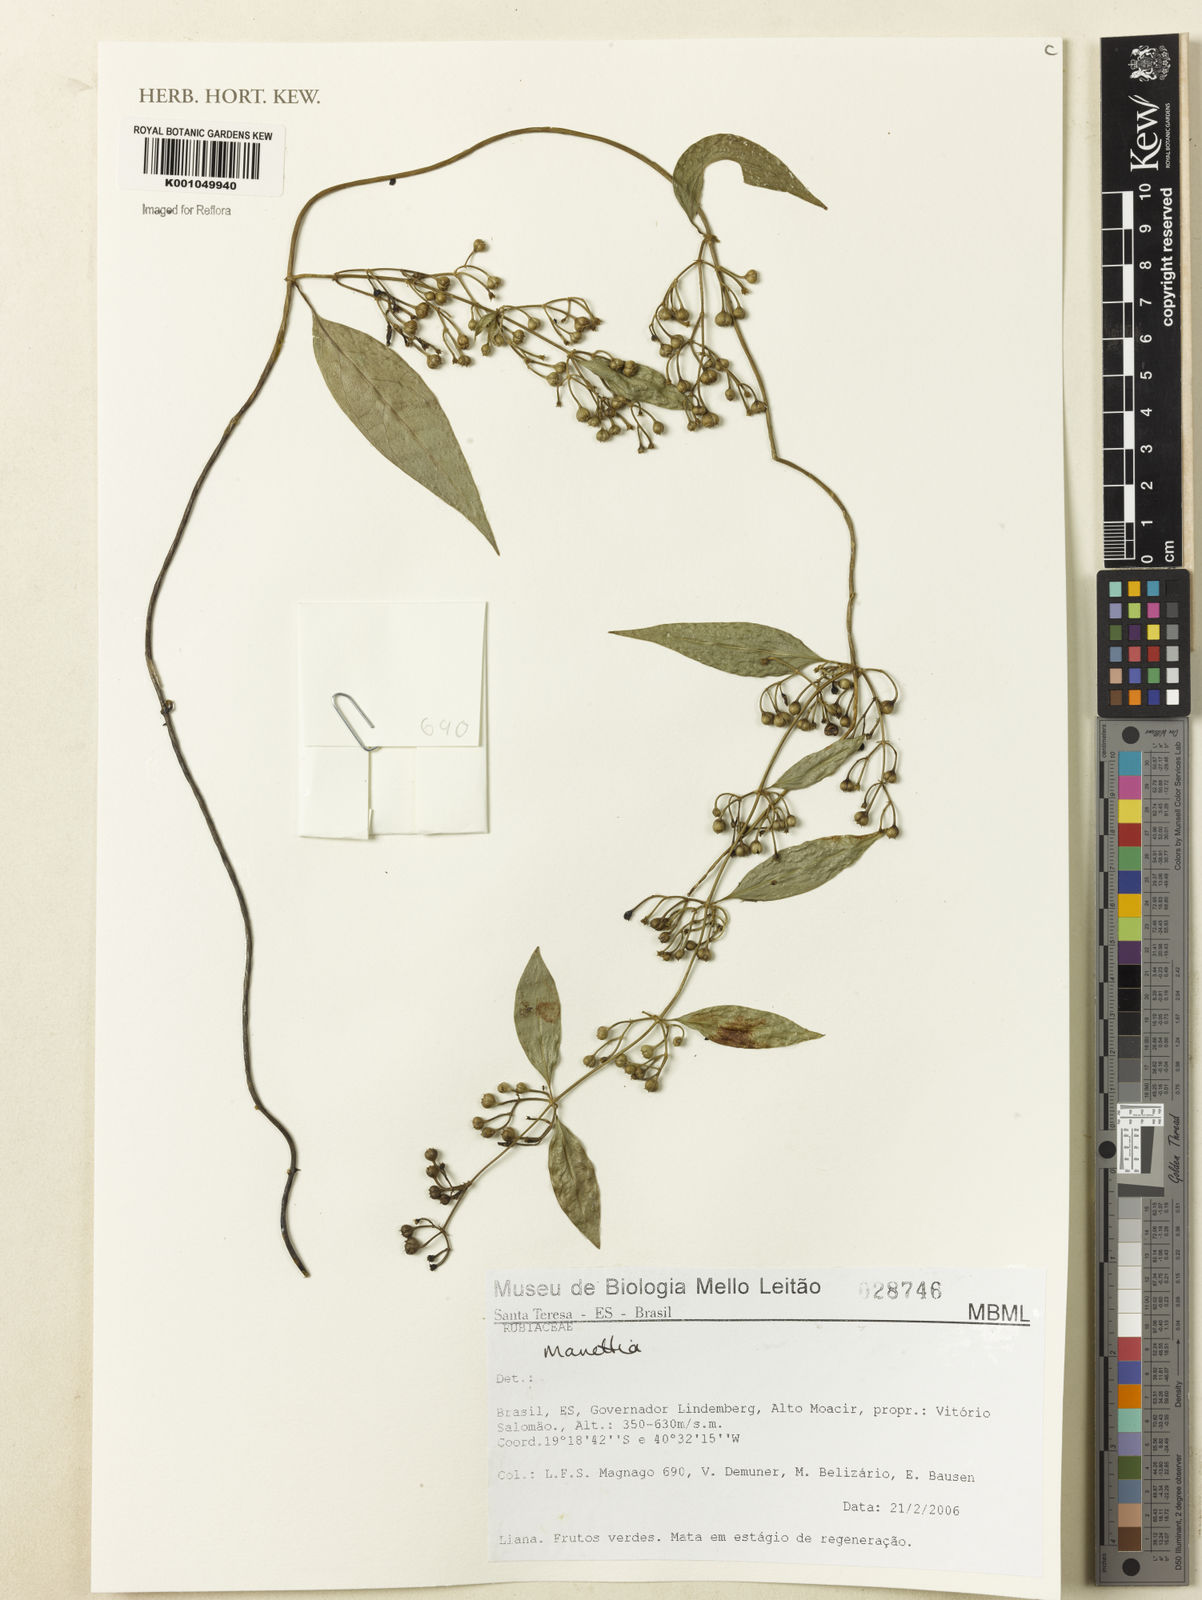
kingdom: Plantae
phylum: Tracheophyta
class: Magnoliopsida
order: Gentianales
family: Rubiaceae
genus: Manettia
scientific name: Manettia
